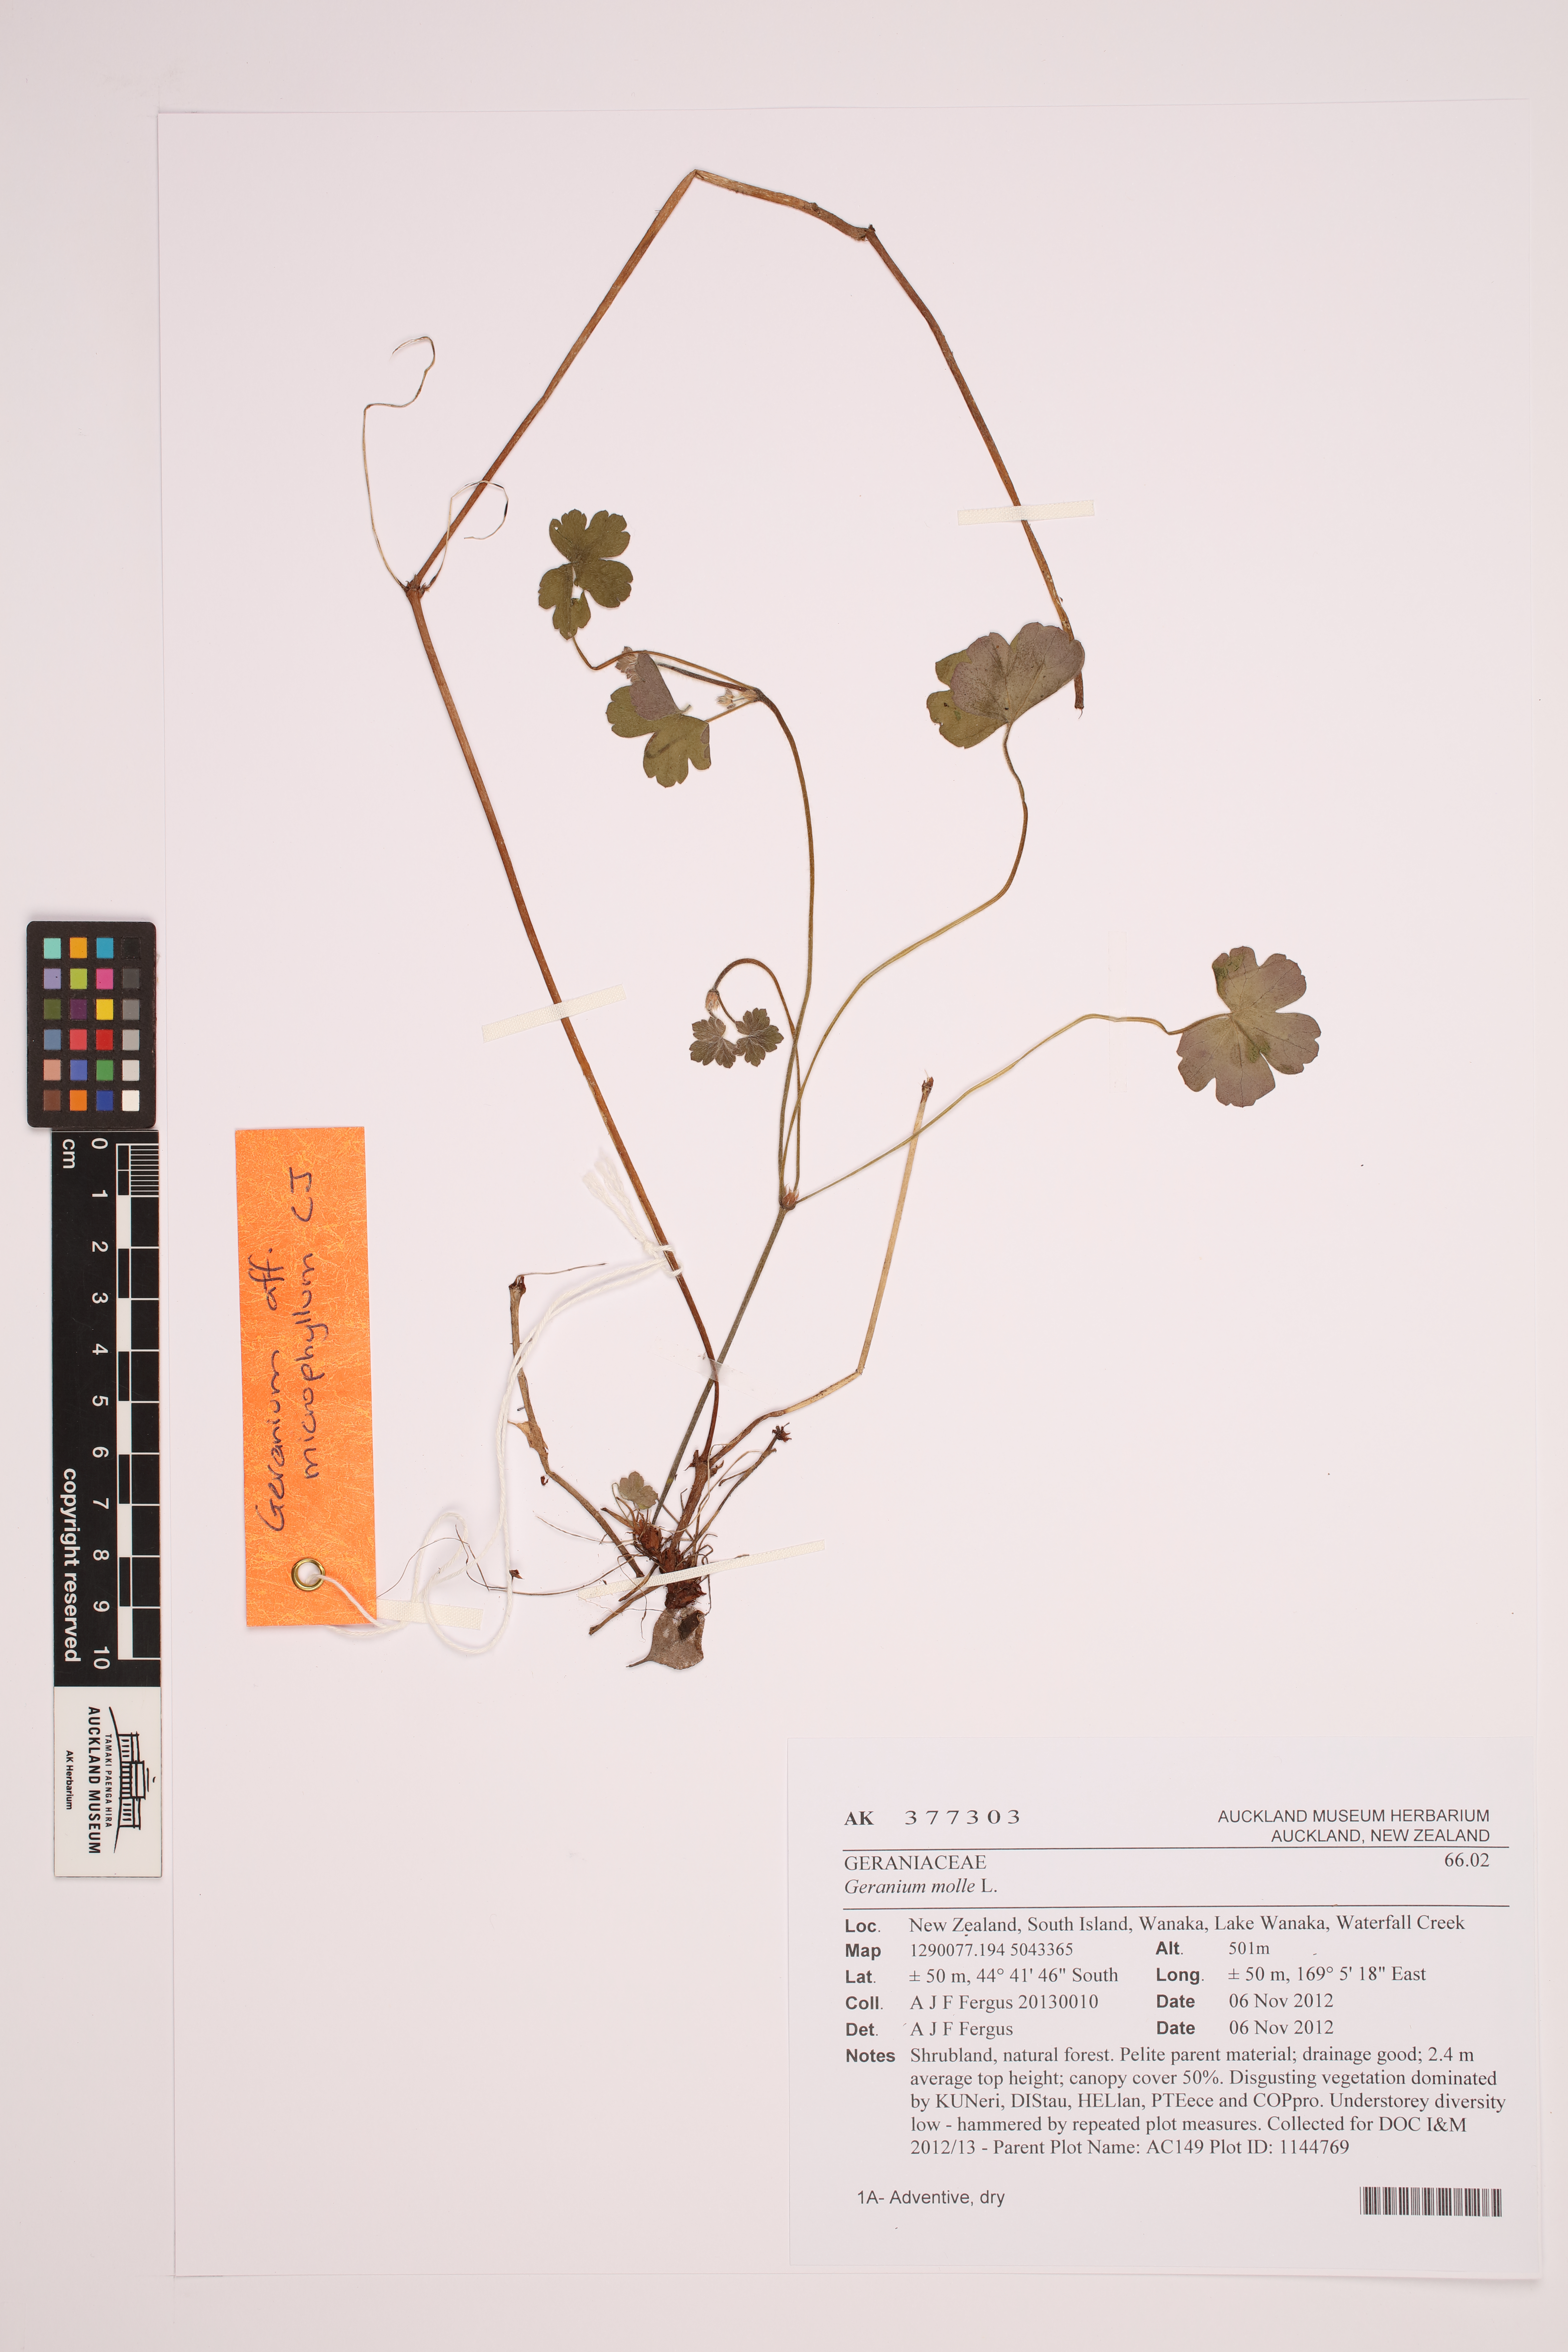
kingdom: Plantae
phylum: Tracheophyta
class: Magnoliopsida
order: Geraniales
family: Geraniaceae
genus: Geranium
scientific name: Geranium potentilloides
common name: Cinquefoil geranium
